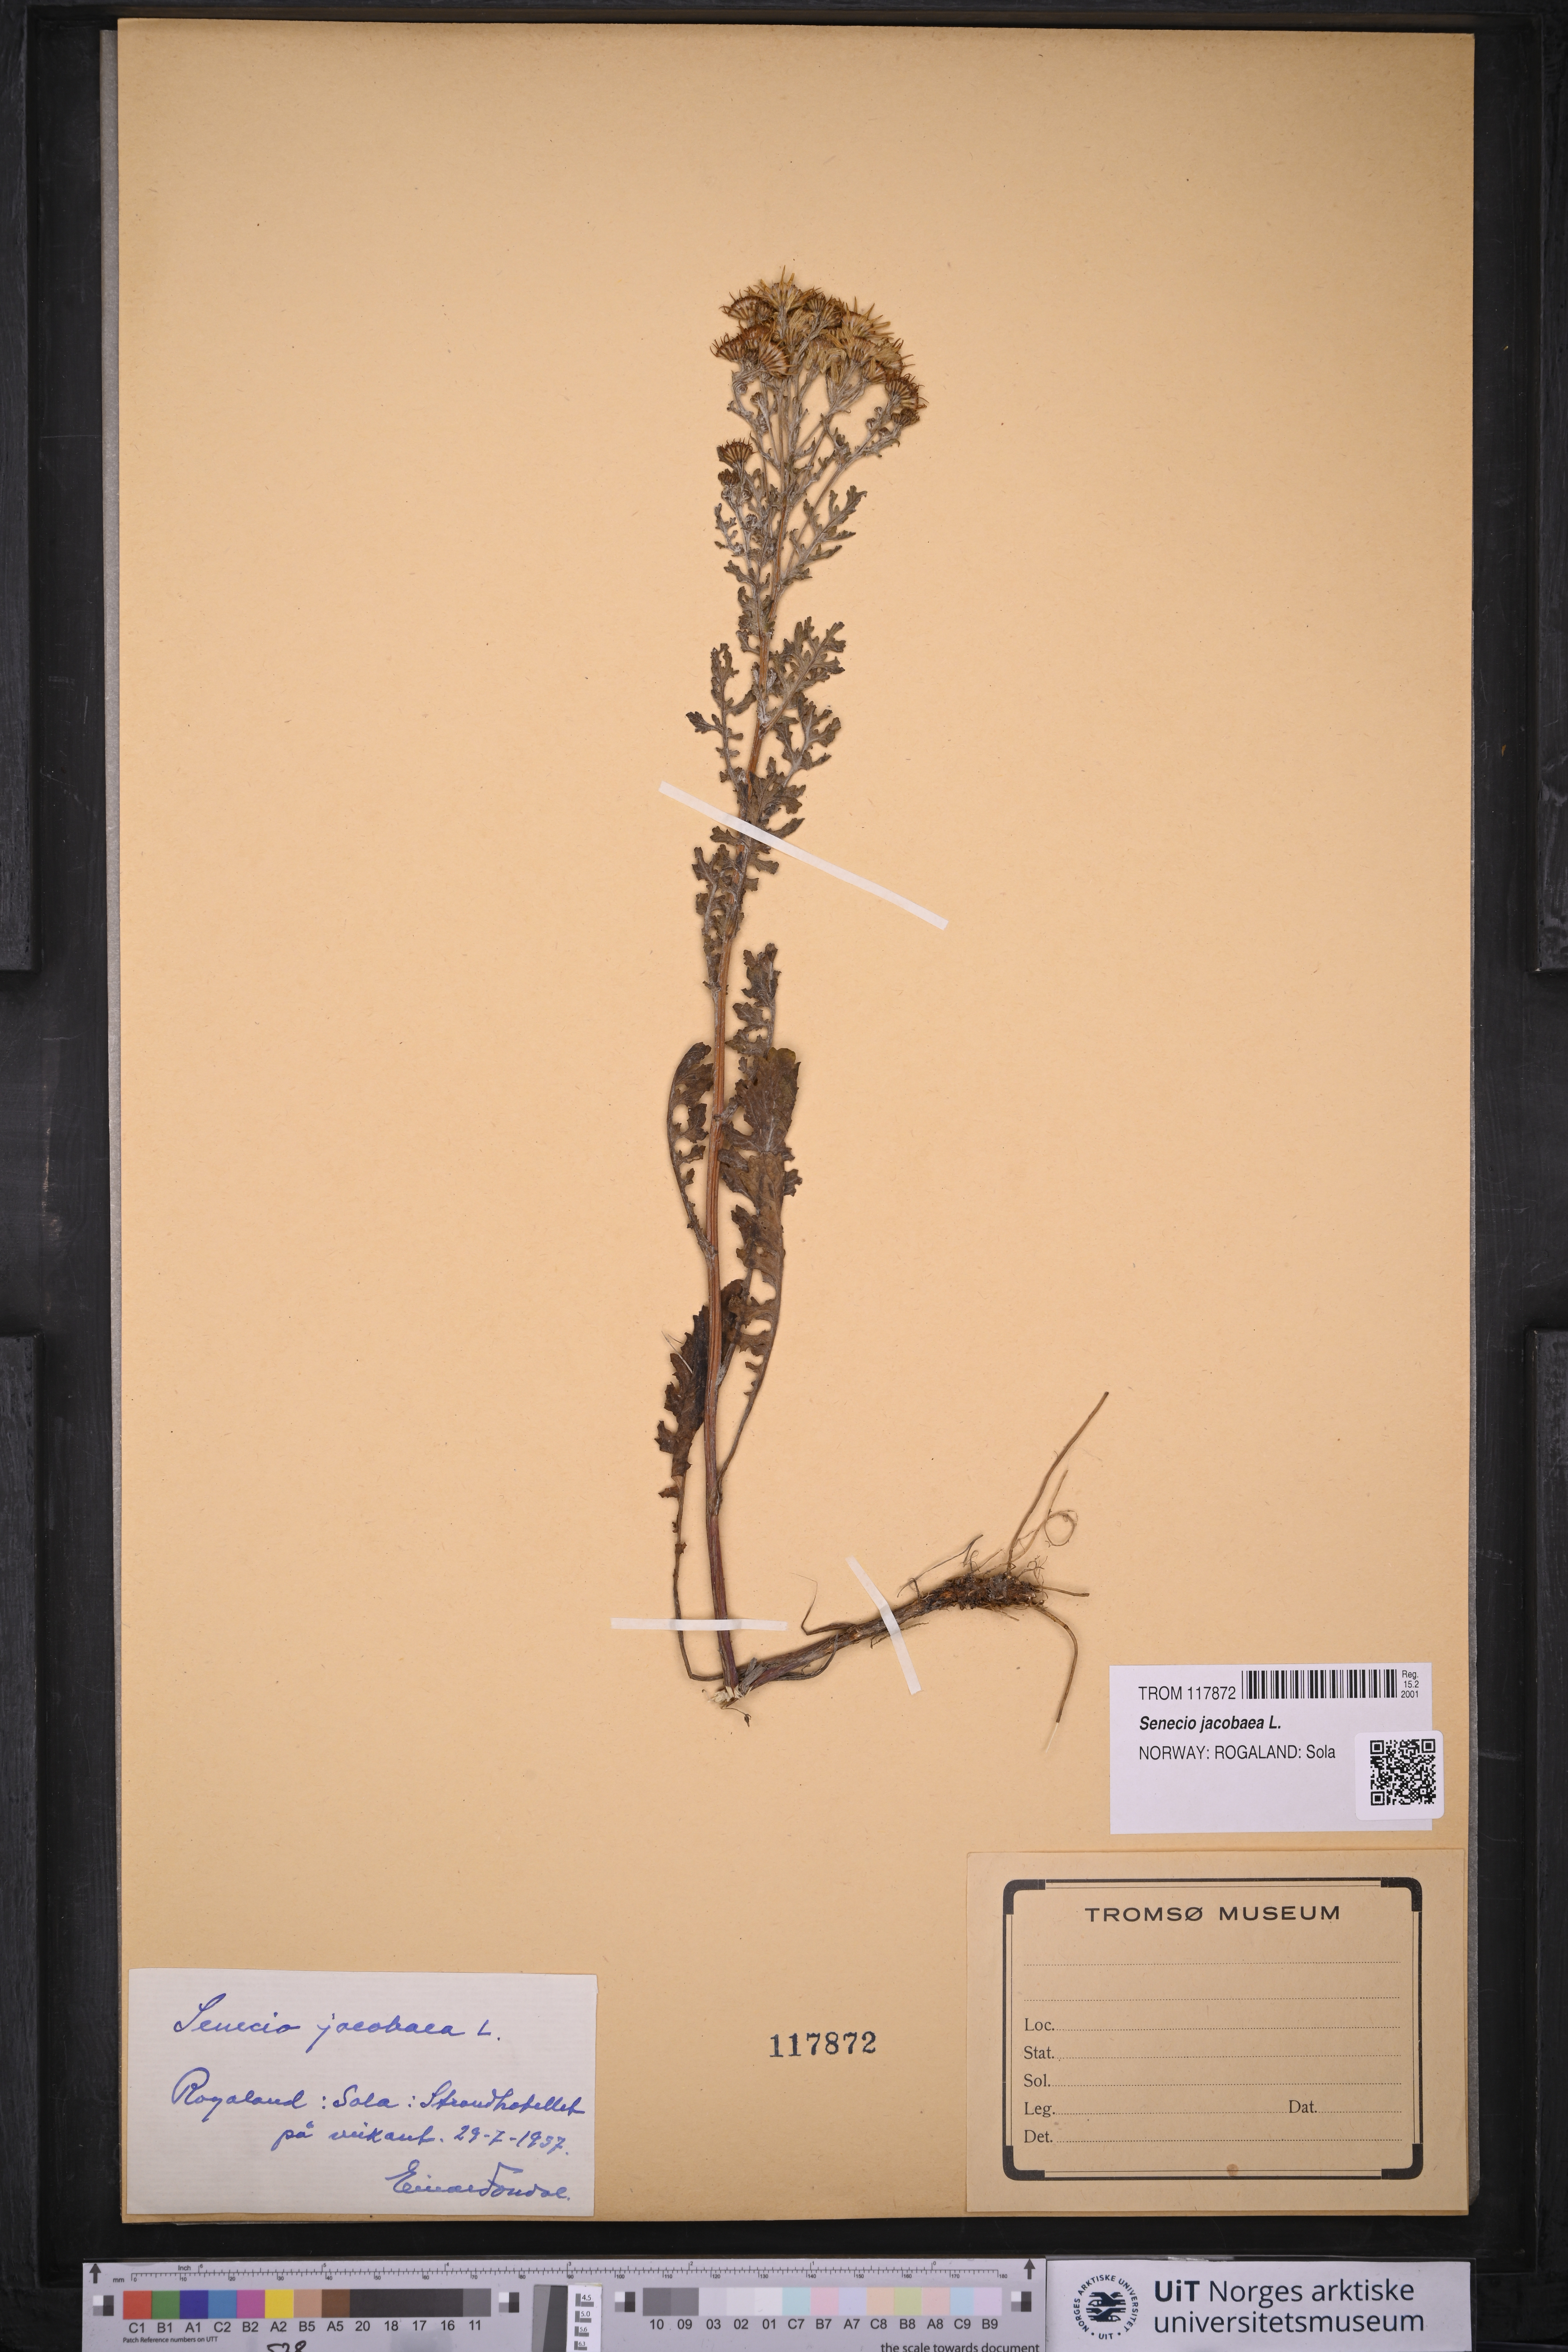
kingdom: Plantae
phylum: Tracheophyta
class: Magnoliopsida
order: Asterales
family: Asteraceae
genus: Jacobaea
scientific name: Jacobaea vulgaris
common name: Stinking willie
